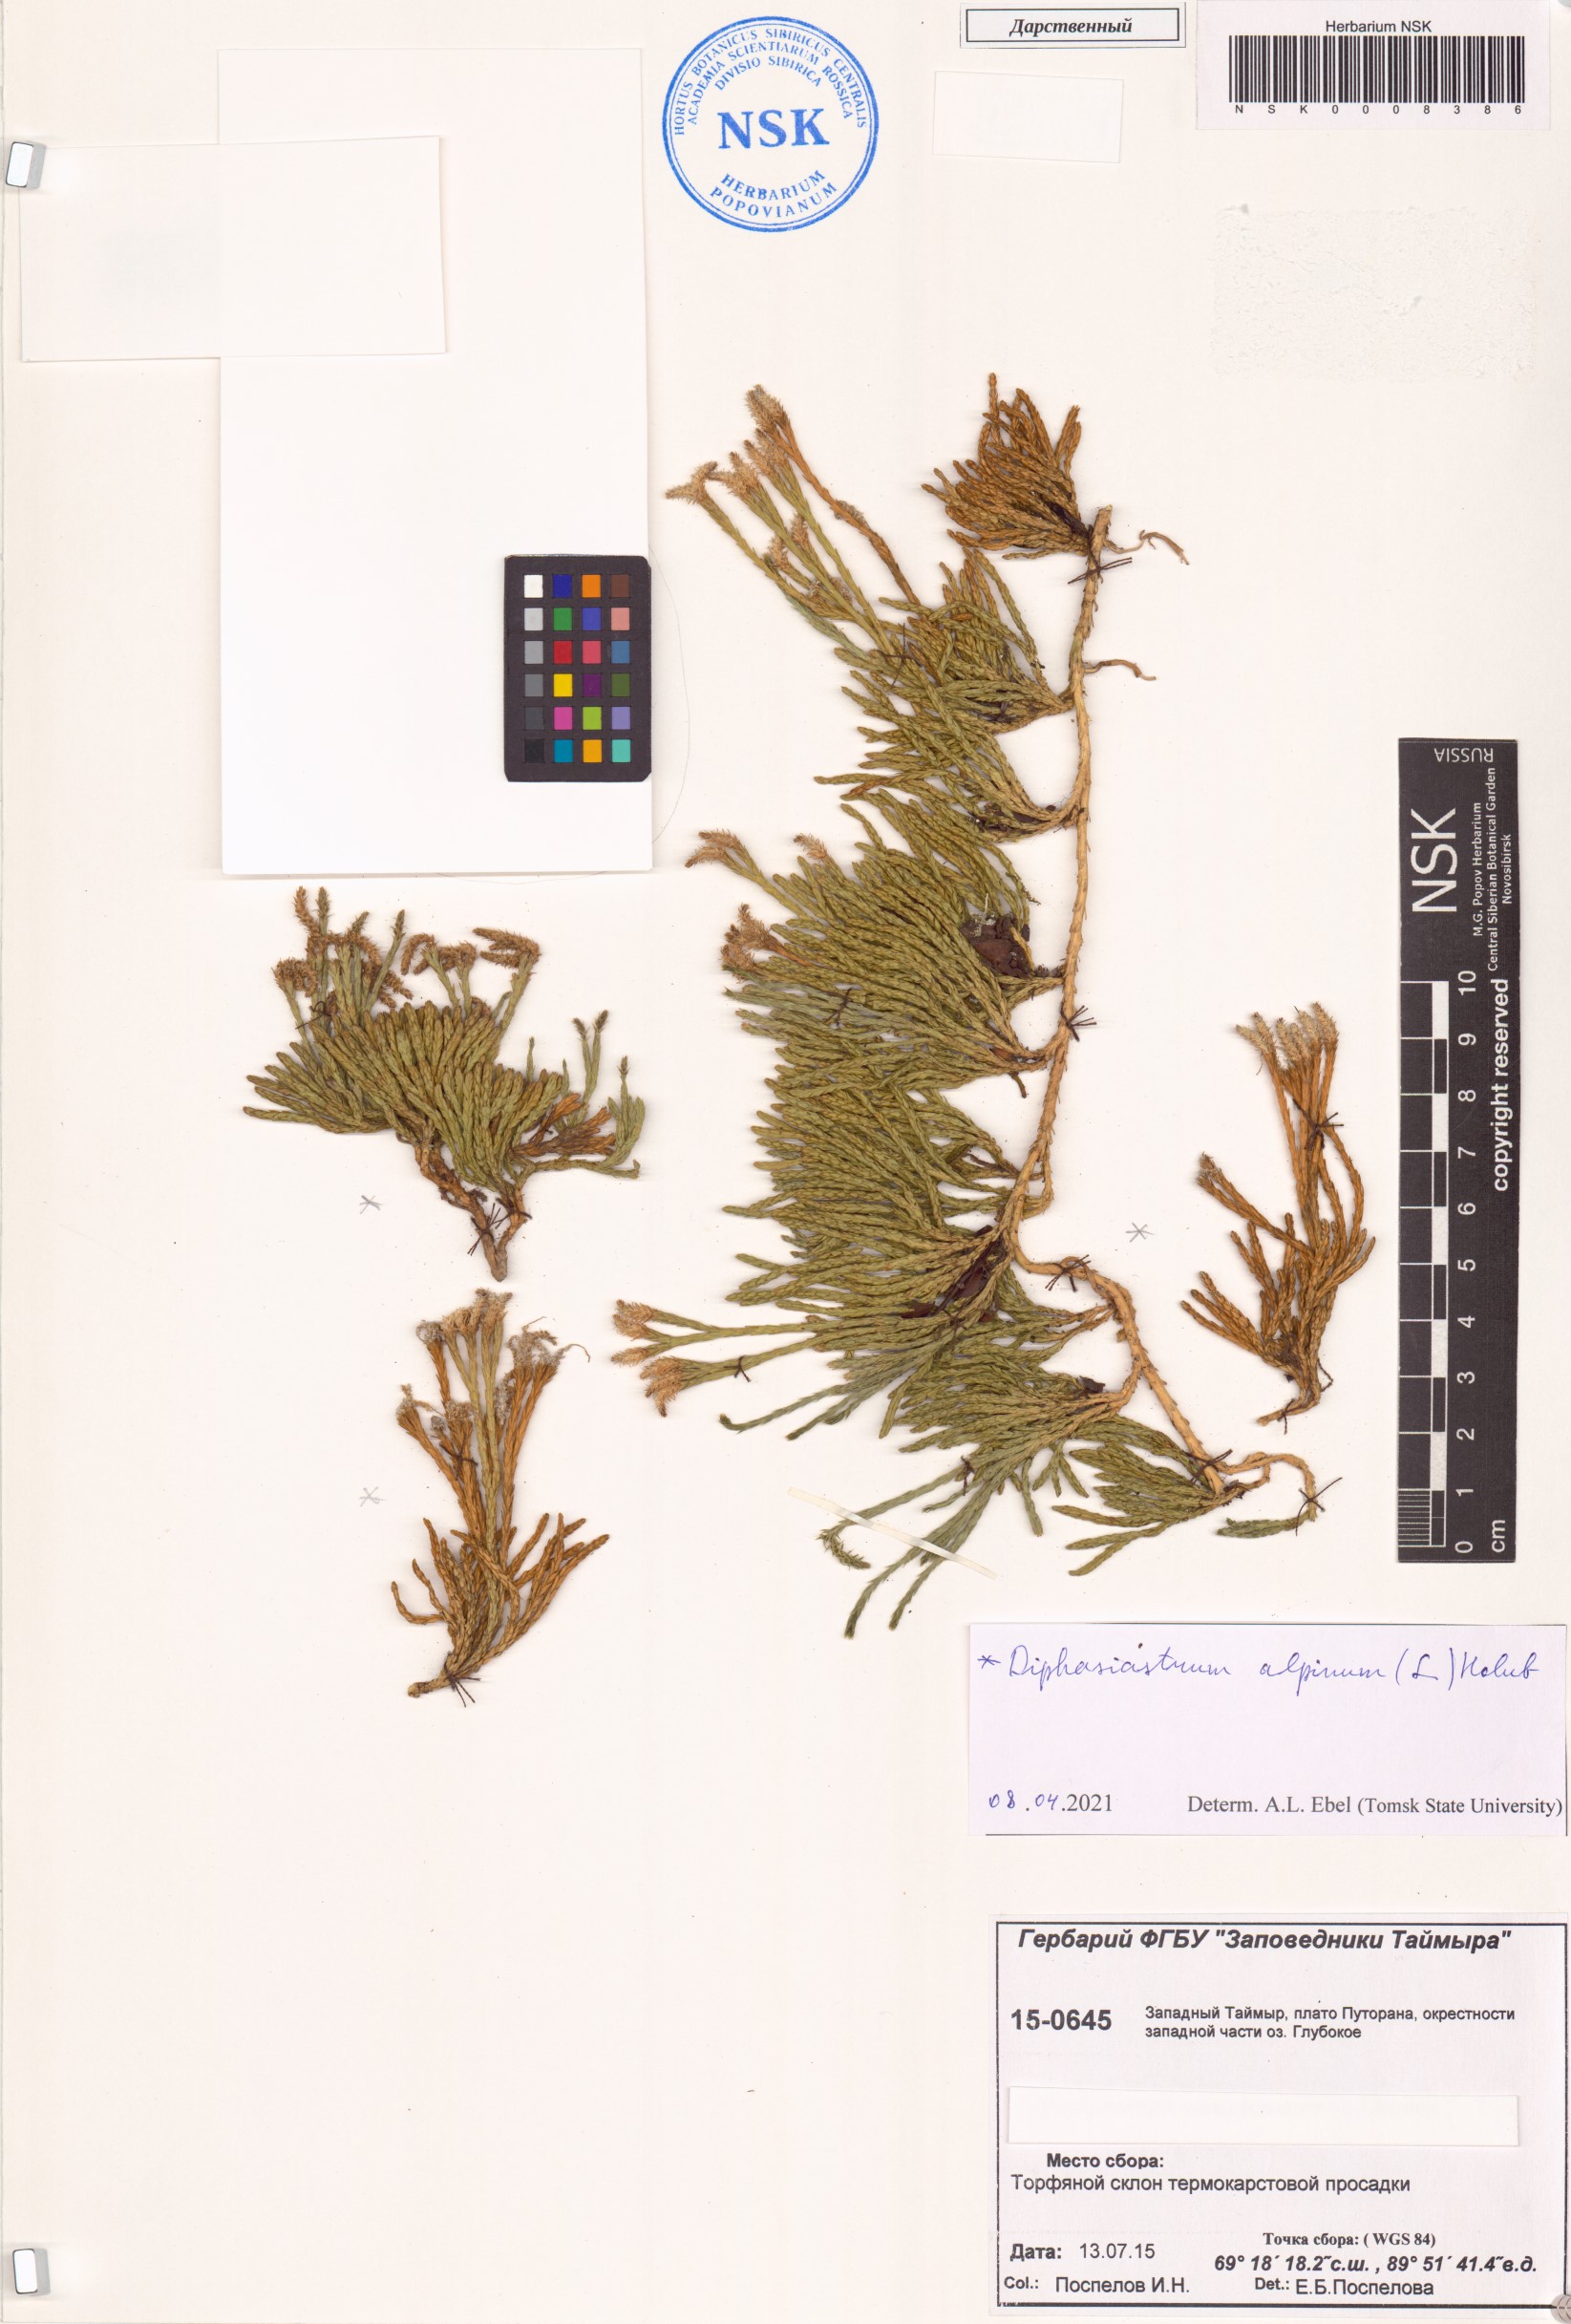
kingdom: Plantae
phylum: Tracheophyta
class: Lycopodiopsida
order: Lycopodiales
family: Lycopodiaceae
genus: Diphasiastrum
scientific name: Diphasiastrum alpinum
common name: Alpine clubmoss
